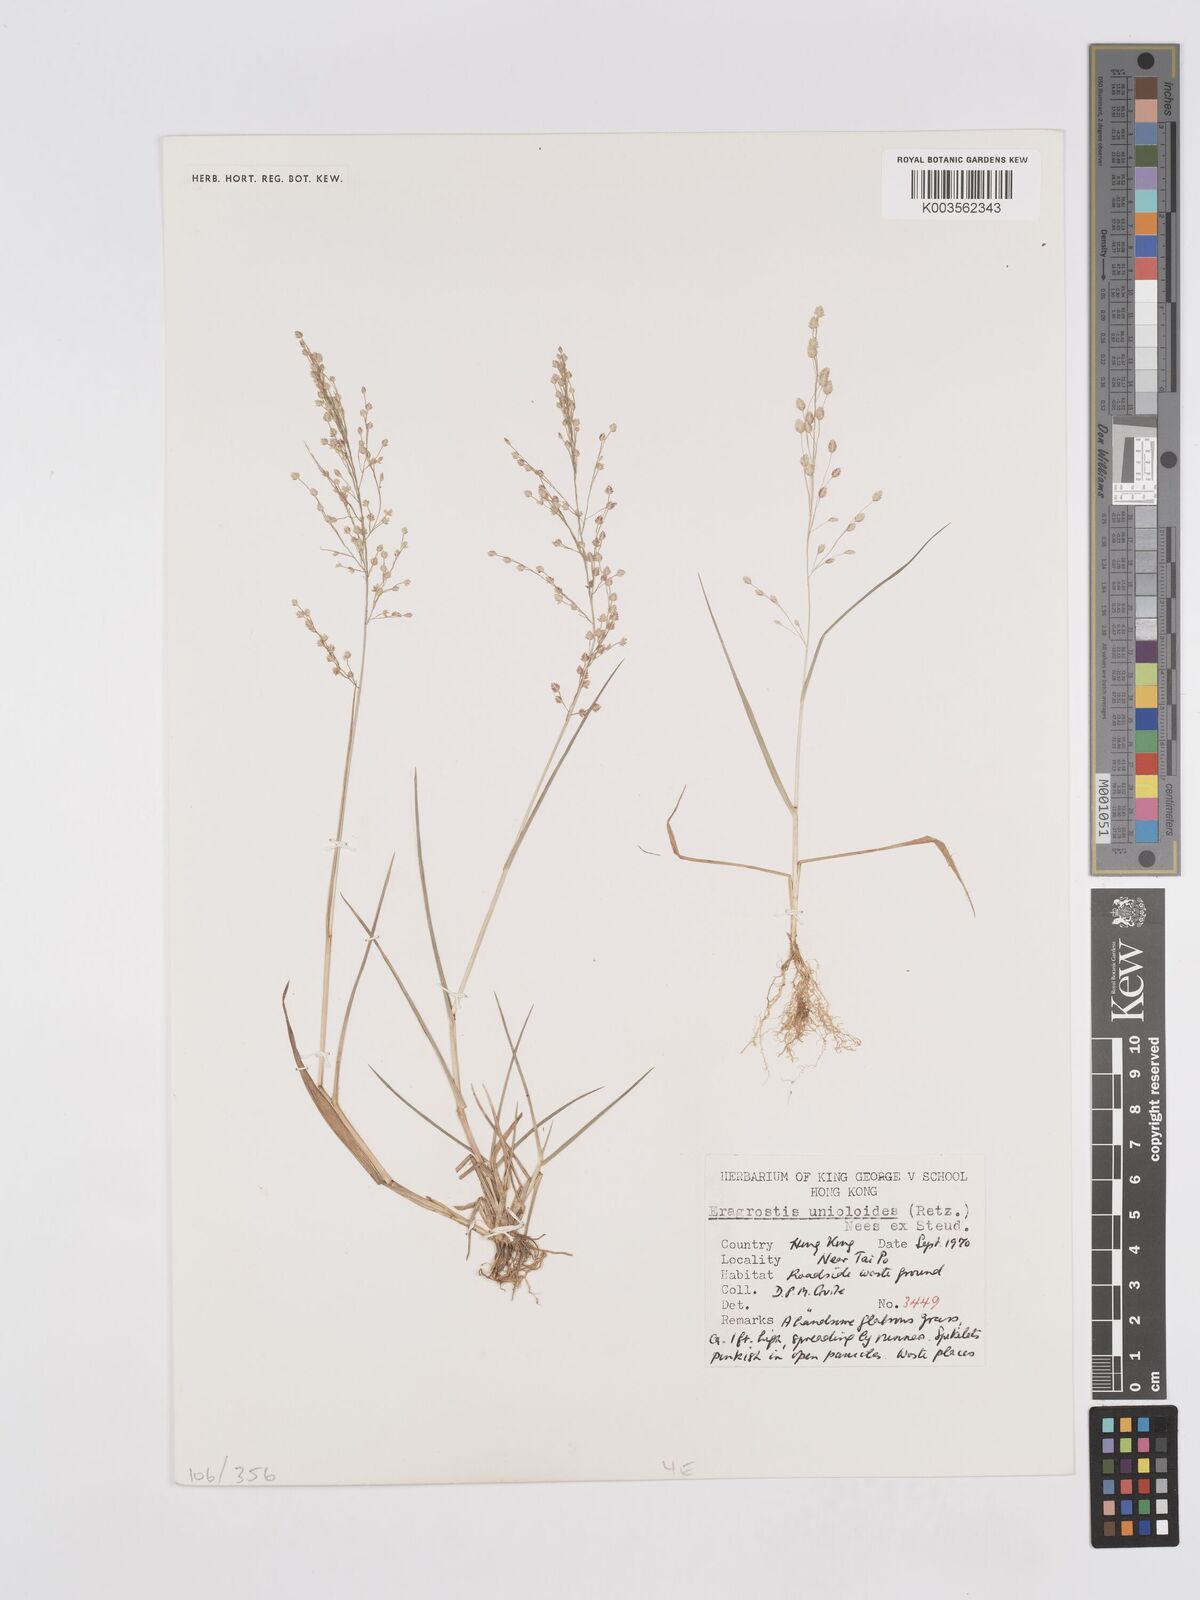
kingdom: Plantae
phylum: Tracheophyta
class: Liliopsida
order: Poales
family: Poaceae
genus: Eragrostis
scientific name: Eragrostis unioloides
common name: Chinese lovegrass
